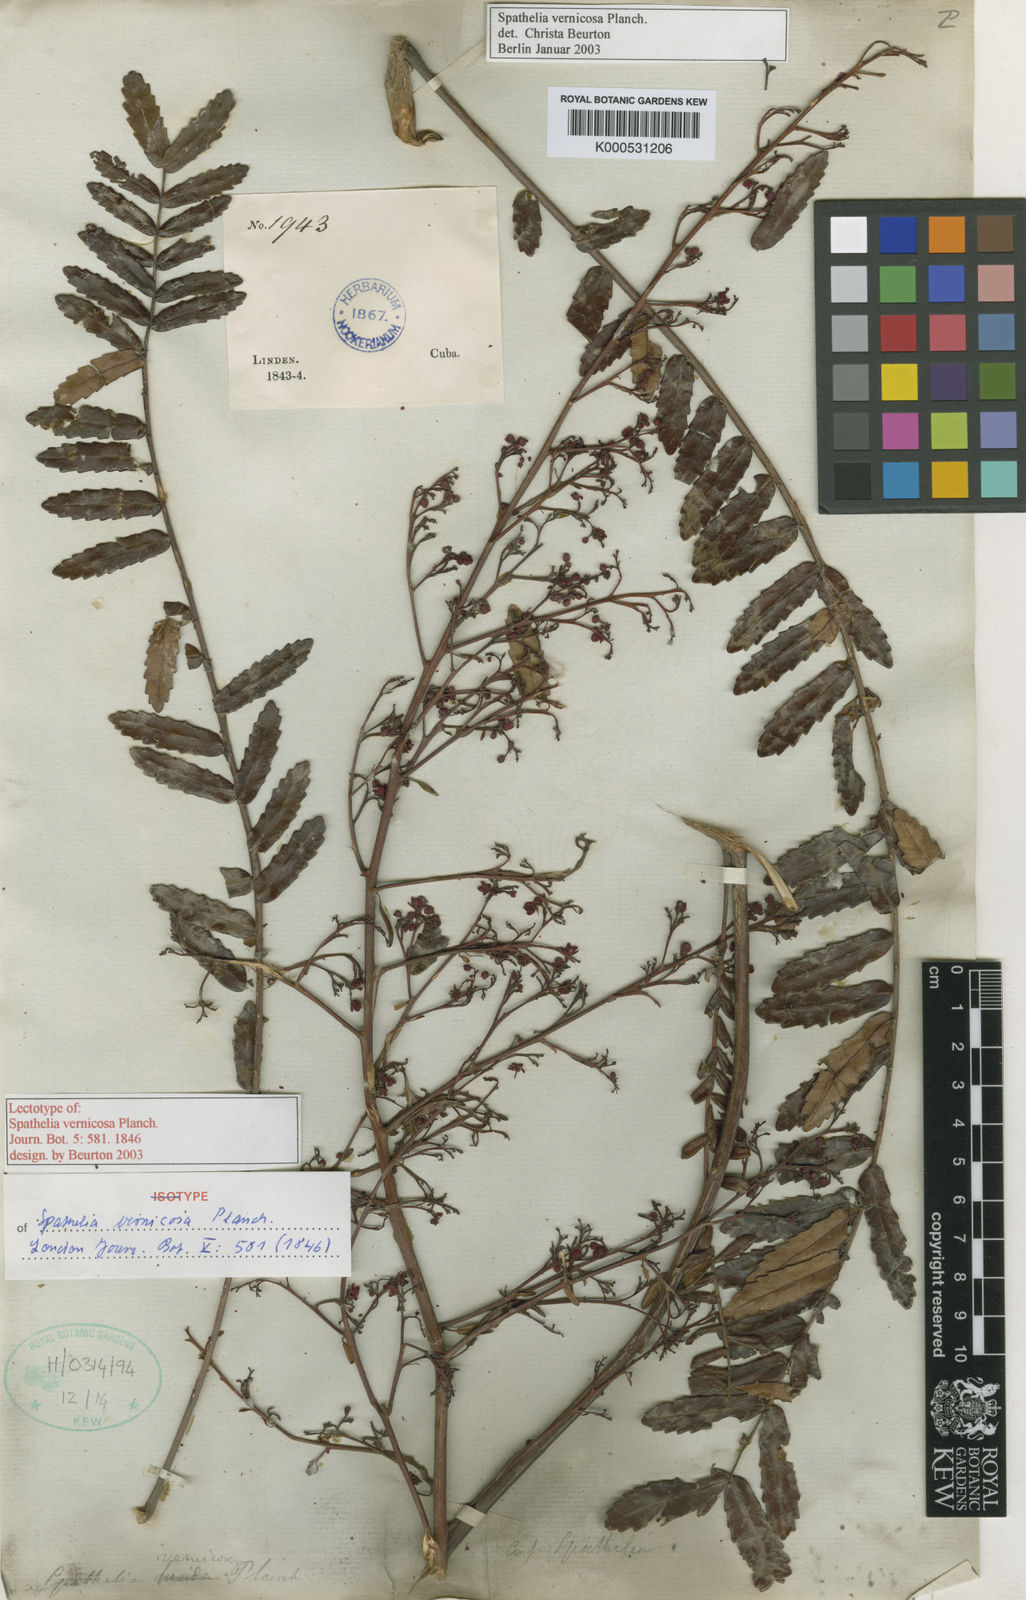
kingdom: Plantae
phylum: Tracheophyta
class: Magnoliopsida
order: Sapindales
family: Rutaceae
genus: Spathelia
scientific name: Spathelia vernicosa
